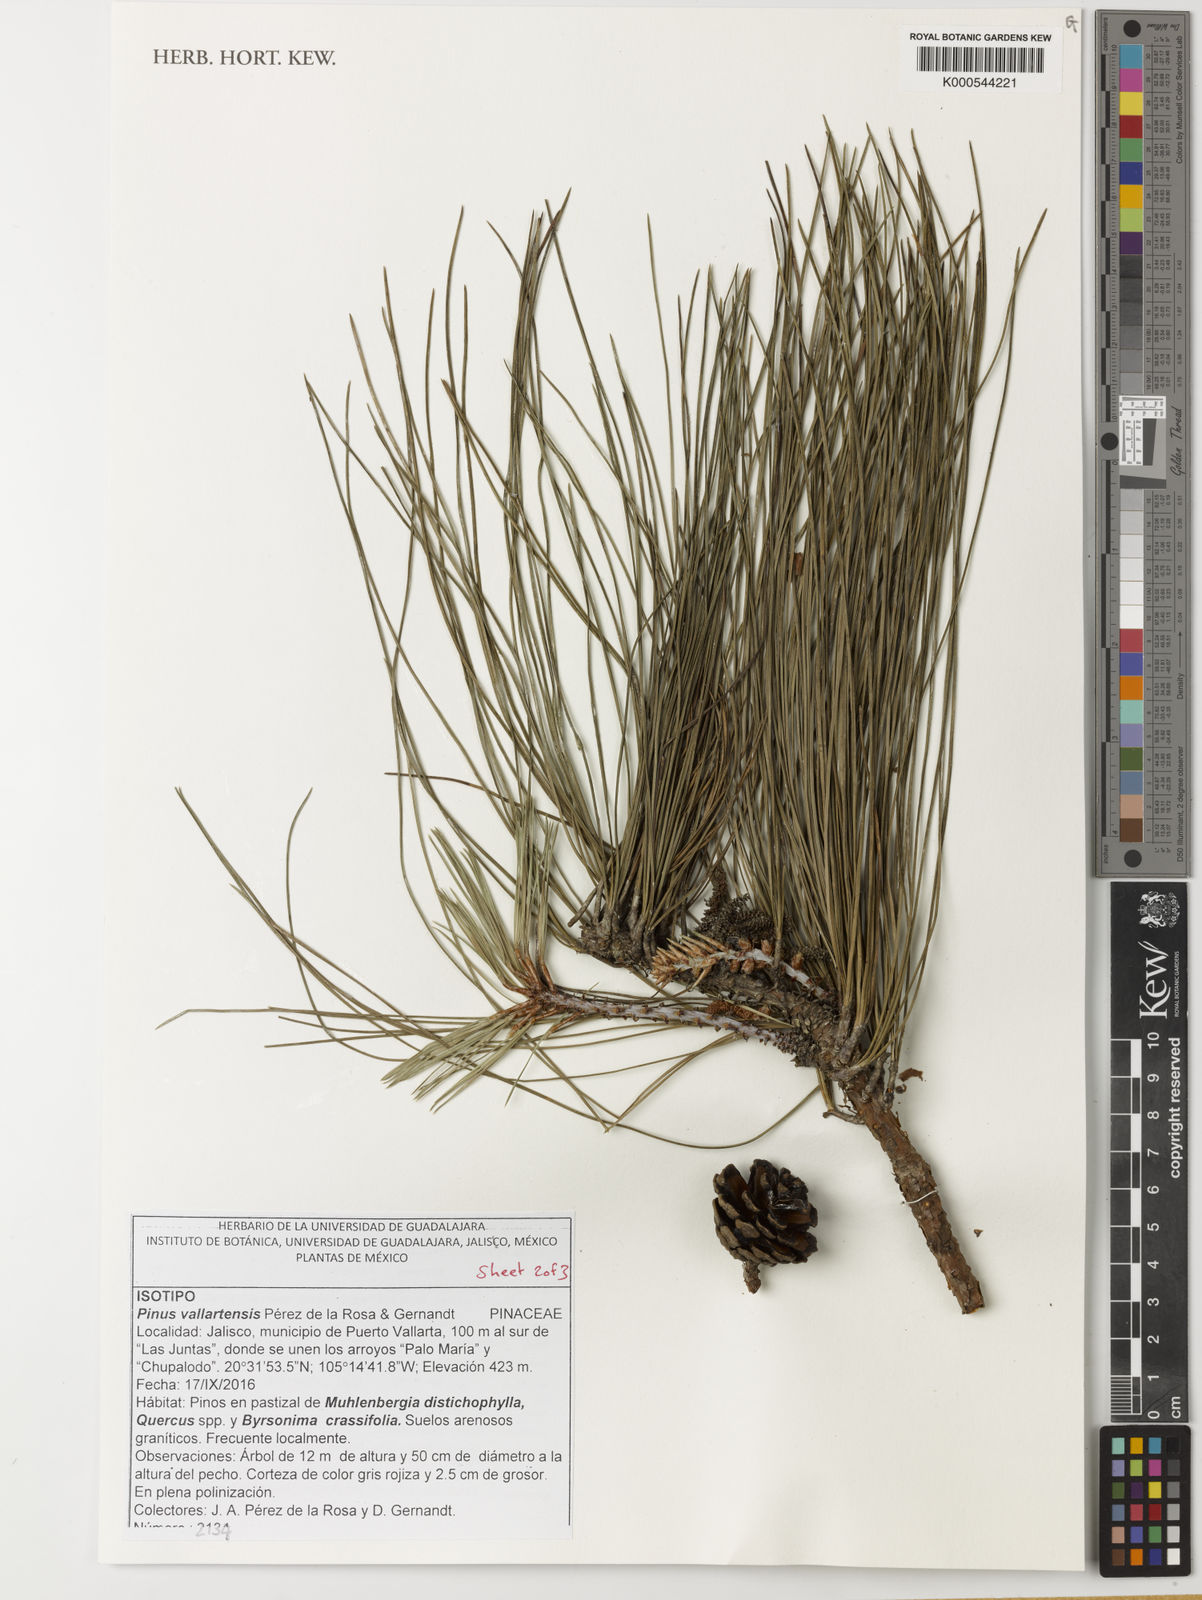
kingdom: Plantae
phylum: Tracheophyta
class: Pinopsida
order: Pinales
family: Pinaceae
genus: Pinus
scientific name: Pinus
